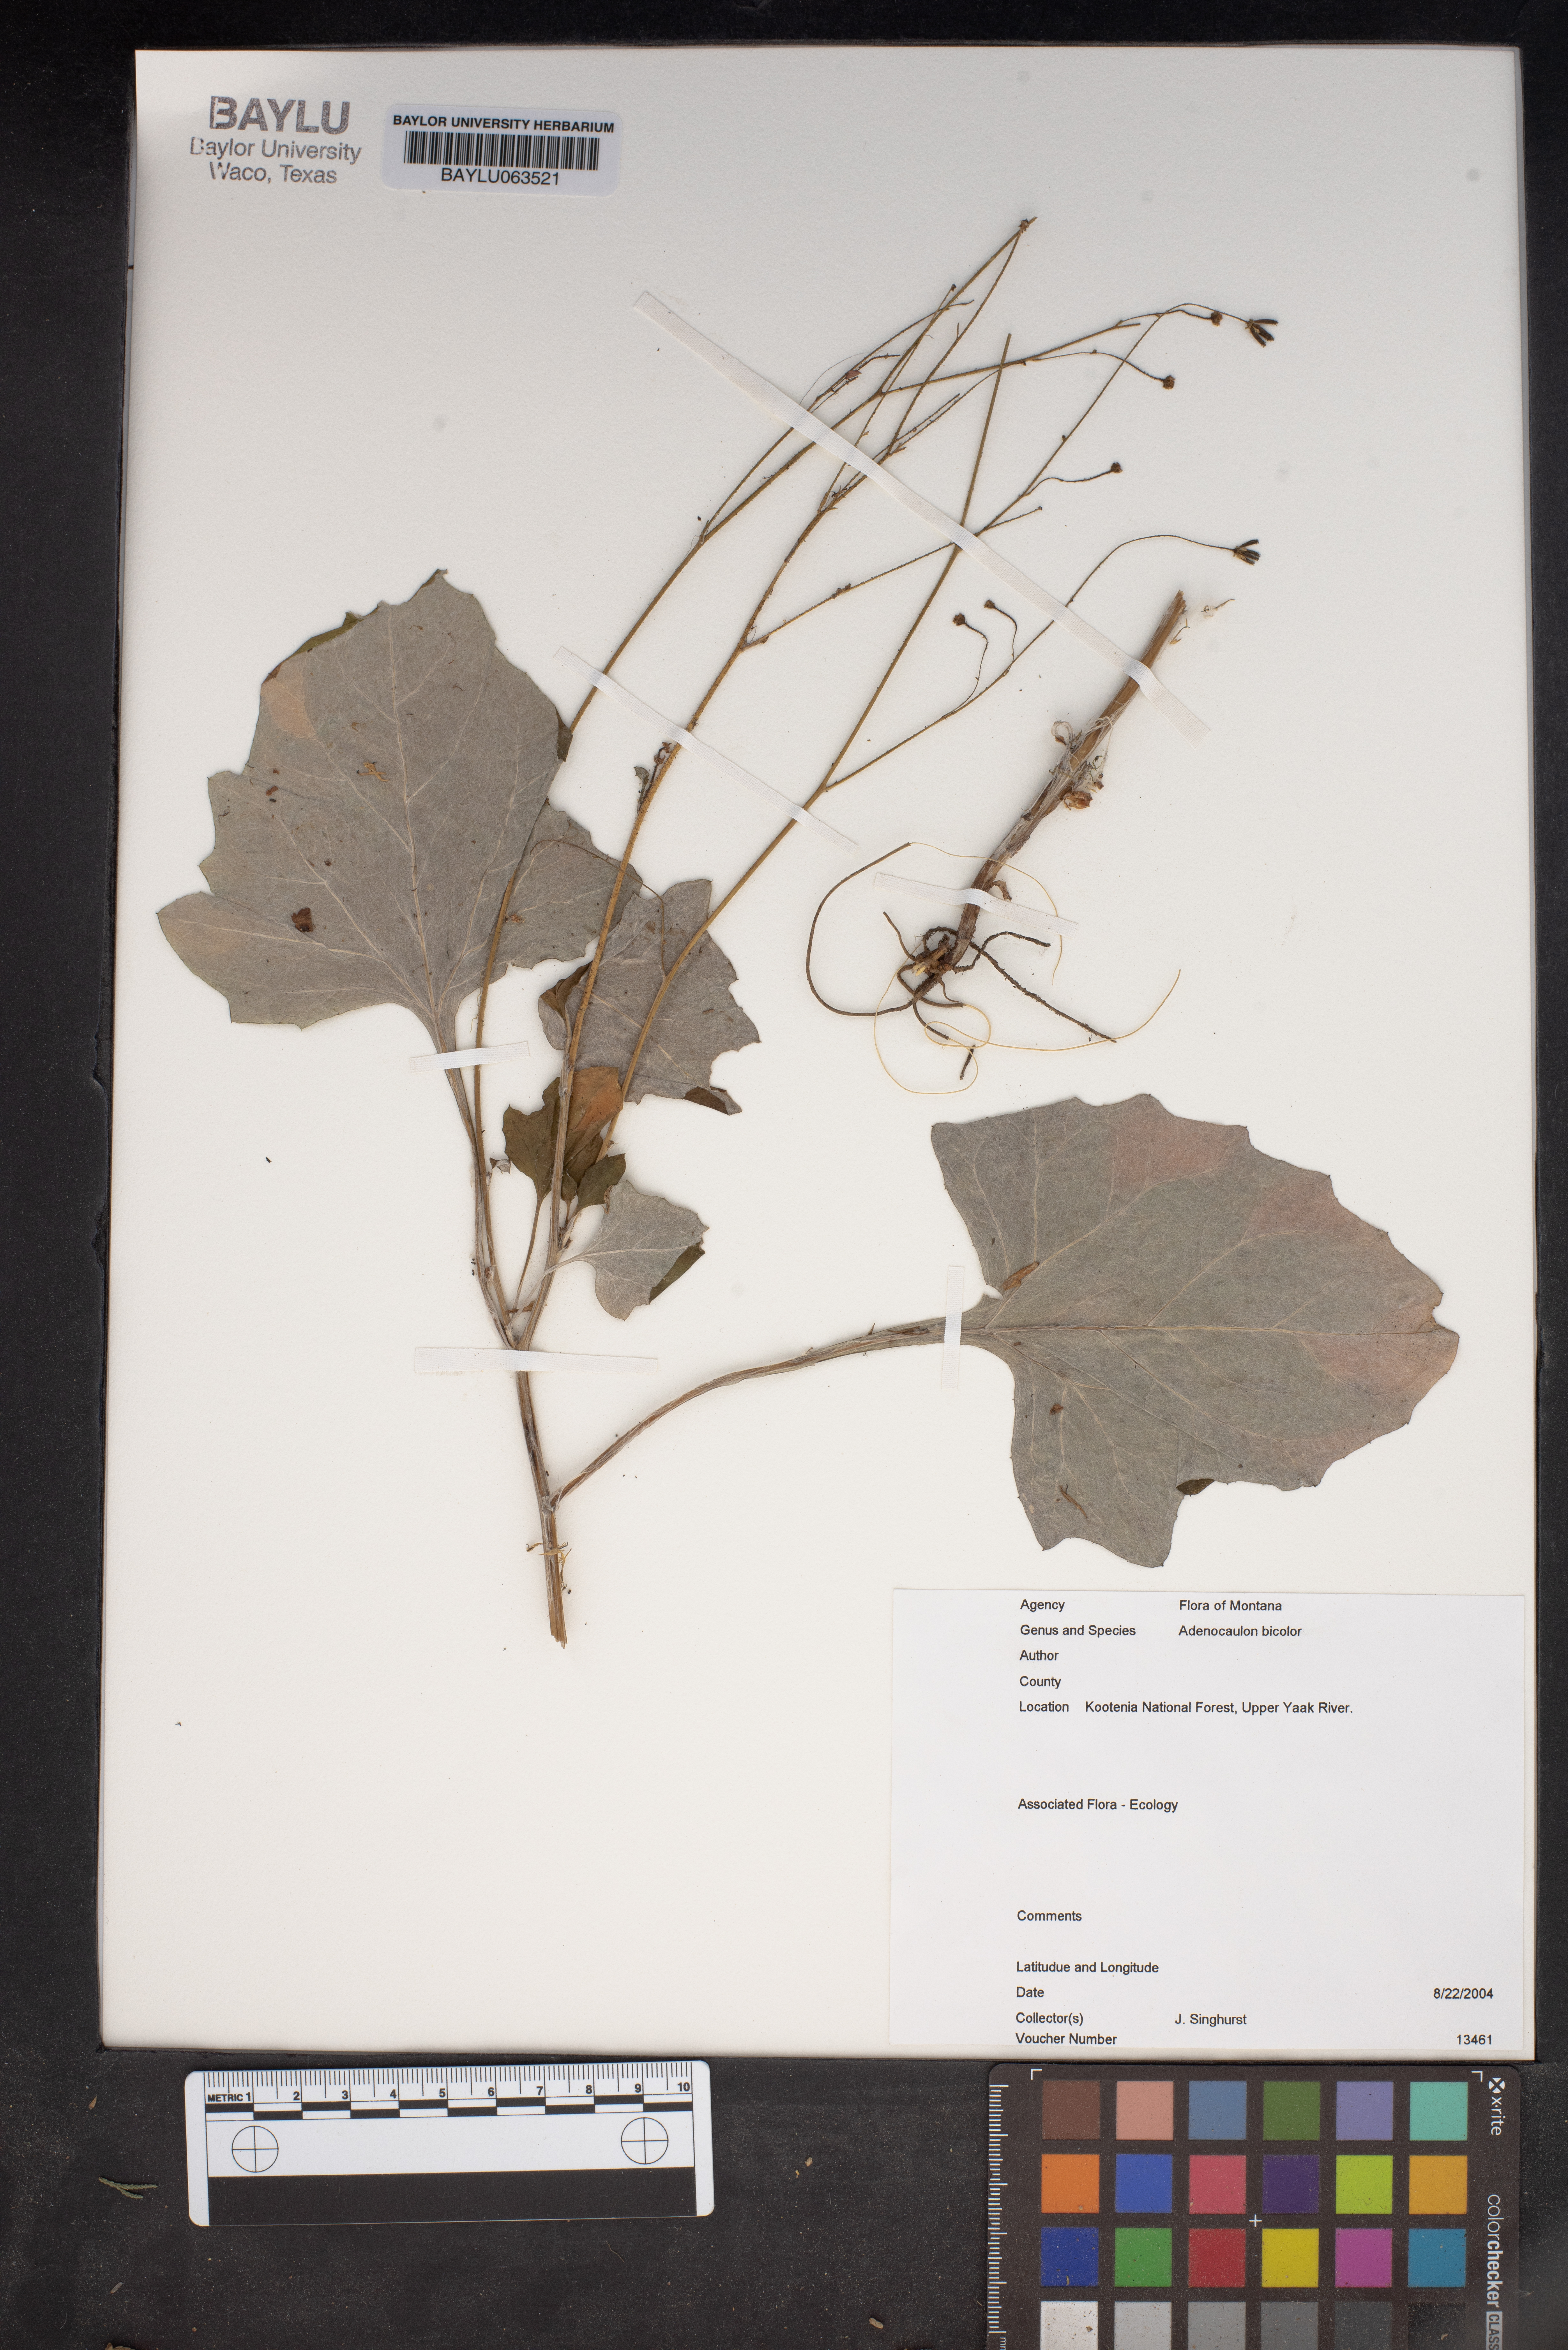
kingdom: Plantae
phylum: Tracheophyta
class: Magnoliopsida
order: Asterales
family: Asteraceae
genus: Adenocaulon
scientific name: Adenocaulon bicolor
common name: Trailplant
